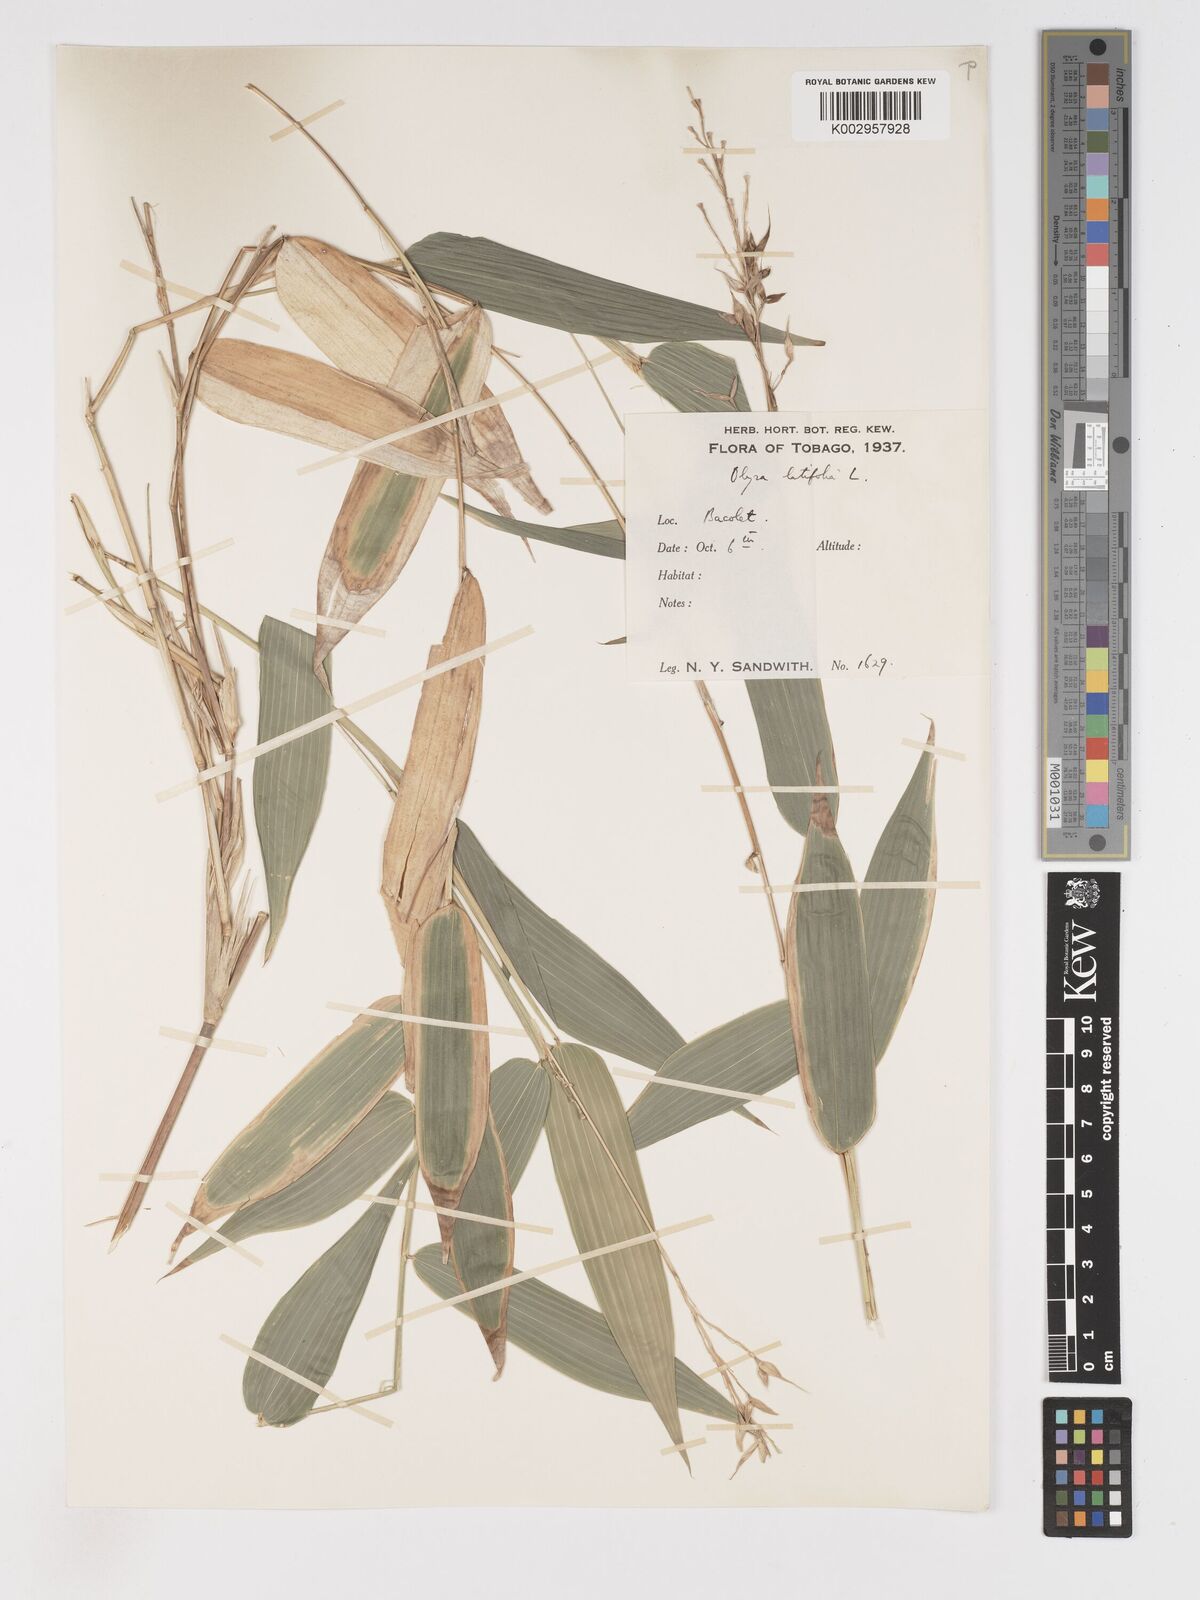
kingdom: Plantae
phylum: Tracheophyta
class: Liliopsida
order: Poales
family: Poaceae
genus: Olyra
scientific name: Olyra latifolia
